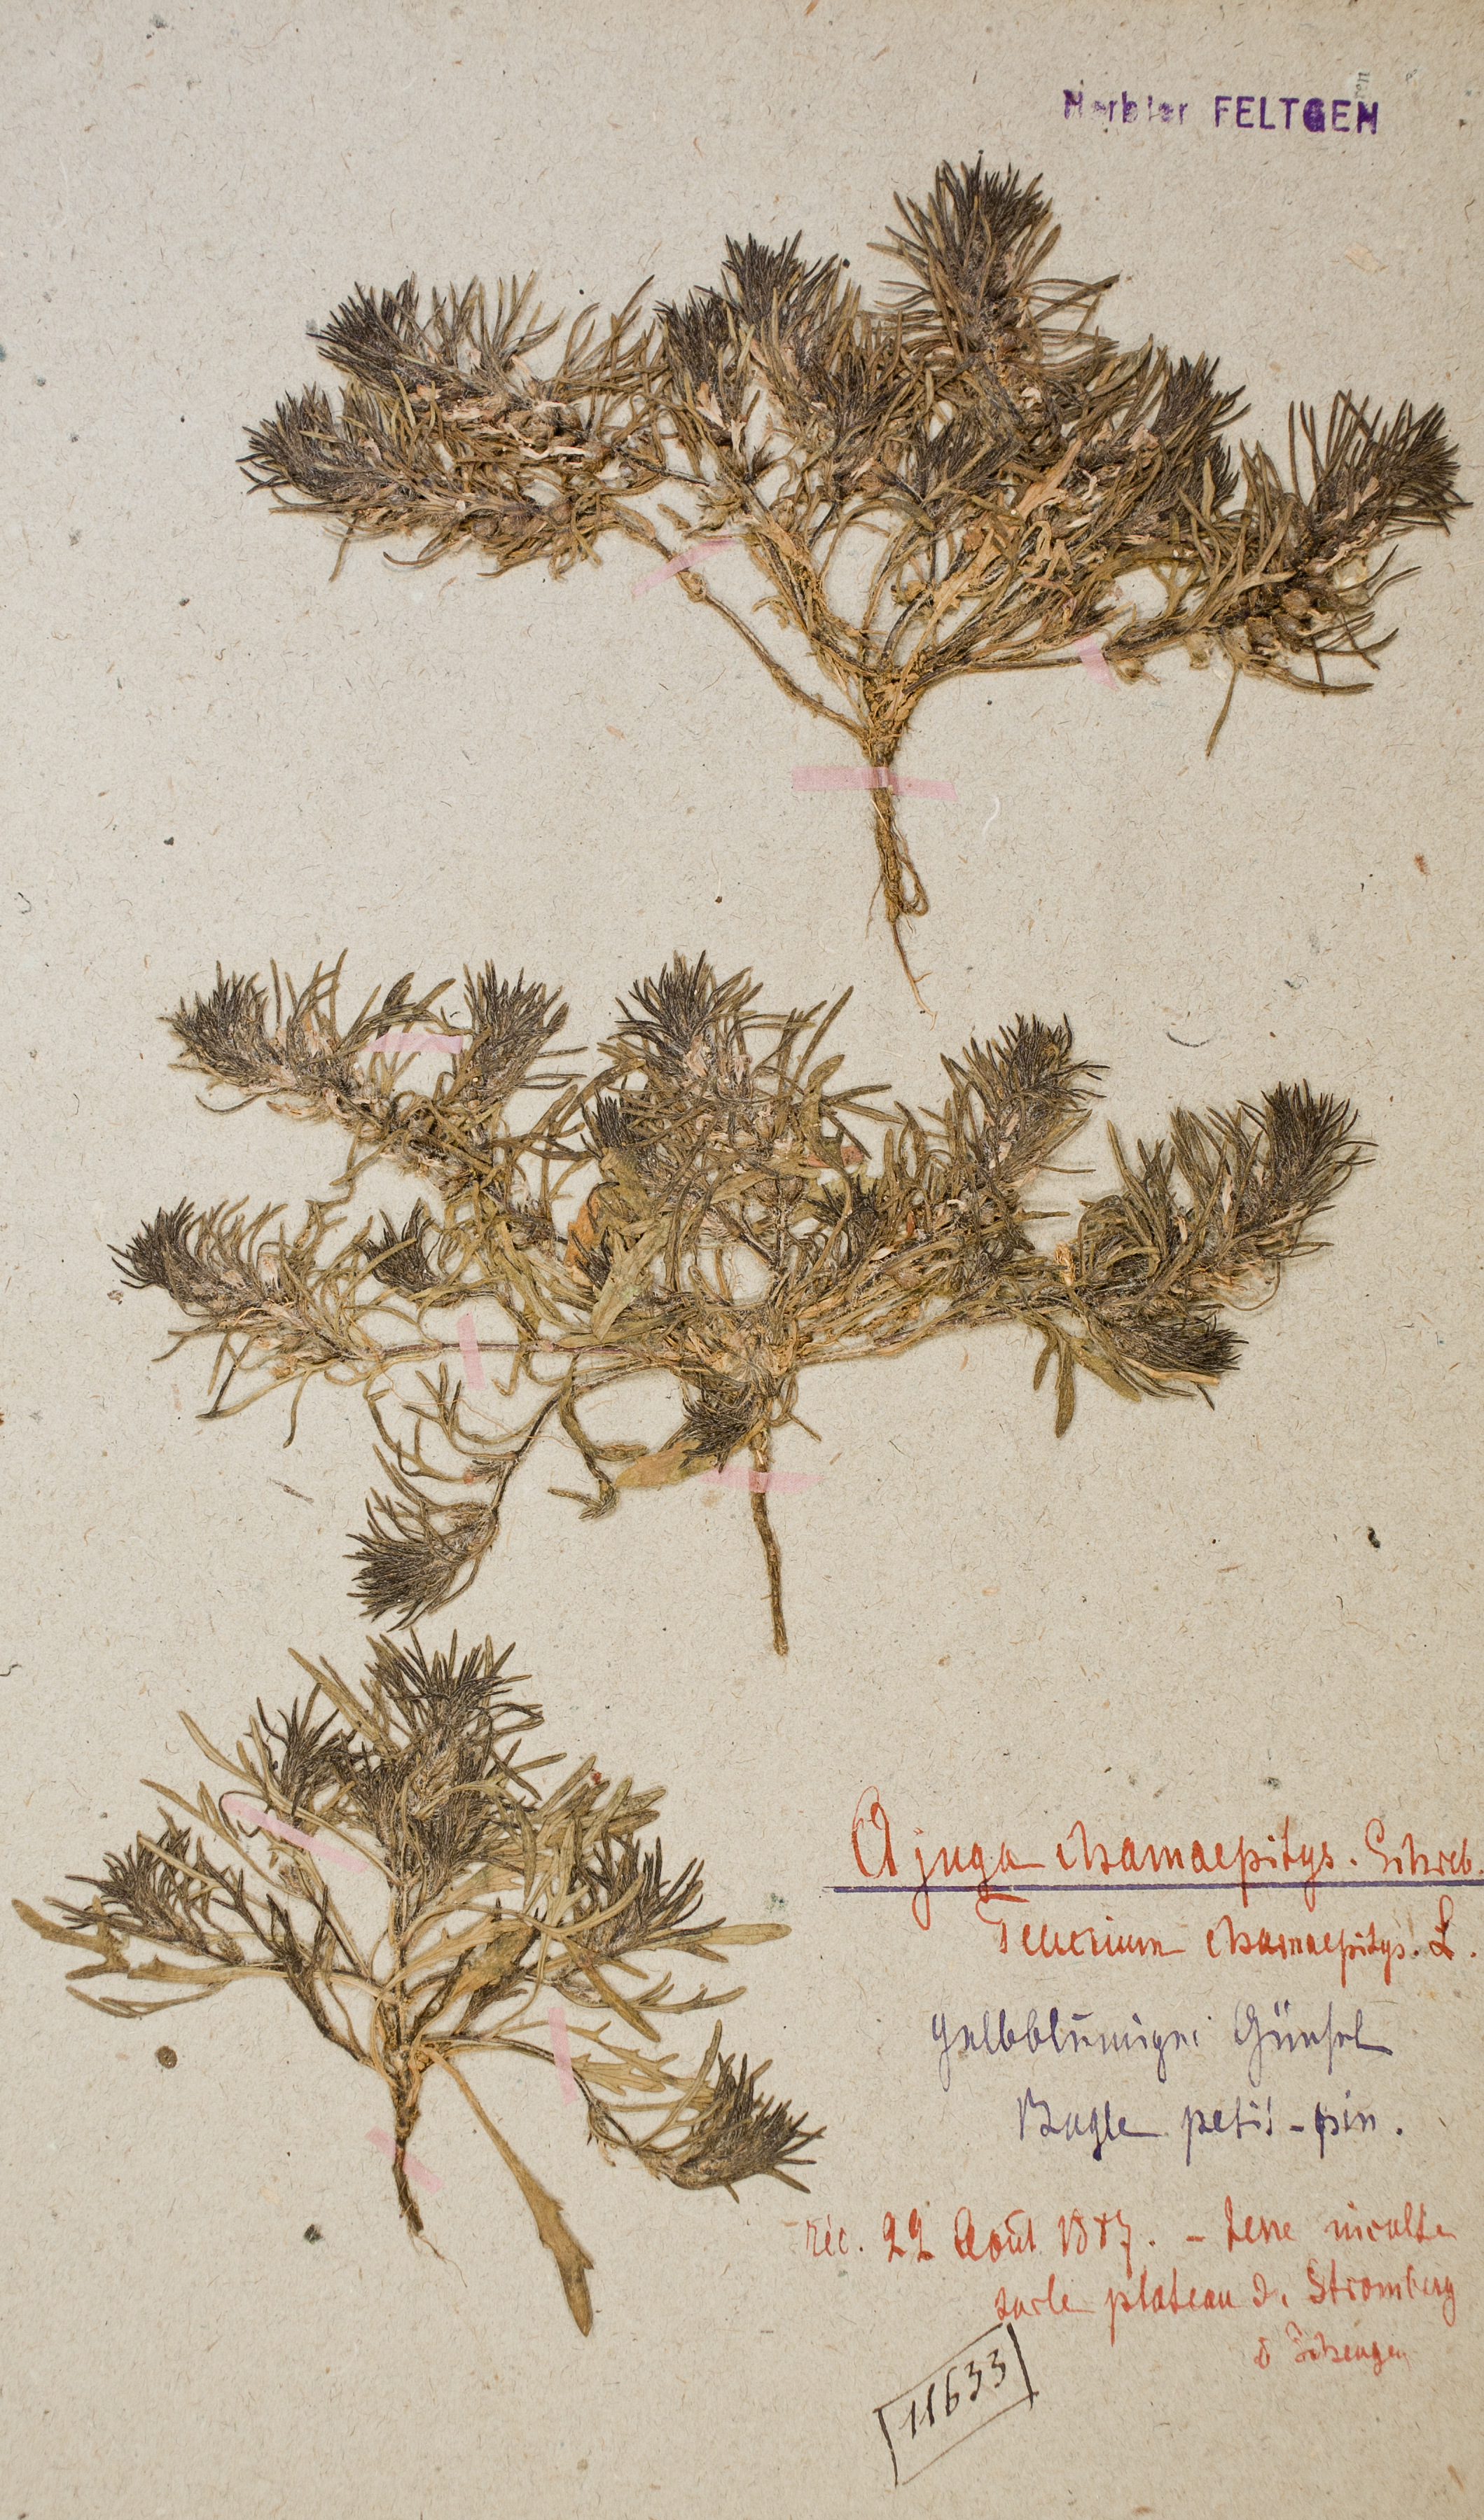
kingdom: Plantae
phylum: Tracheophyta
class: Magnoliopsida
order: Lamiales
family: Lamiaceae
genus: Ajuga
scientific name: Ajuga chamaepitys
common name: Ground-pine
